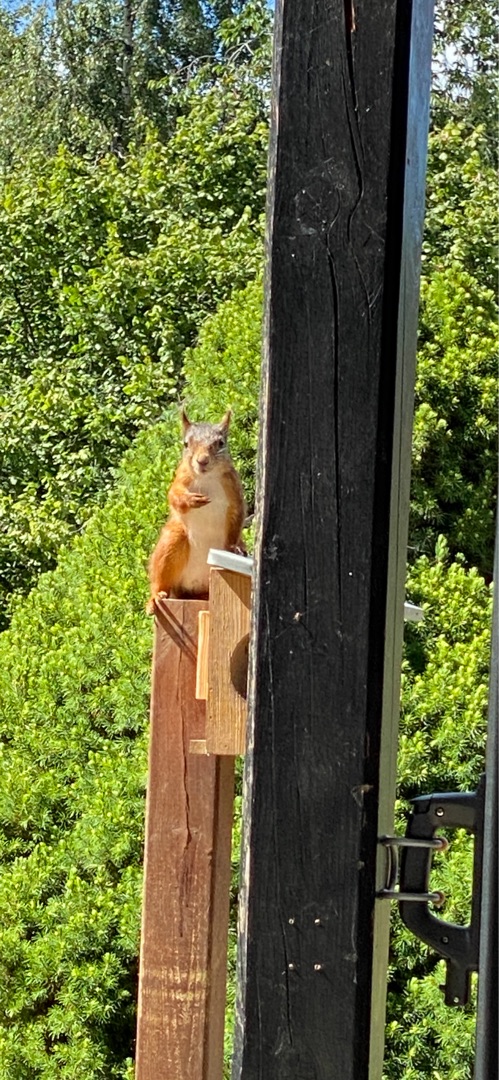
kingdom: Animalia
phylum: Chordata
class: Mammalia
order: Rodentia
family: Sciuridae
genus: Sciurus
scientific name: Sciurus vulgaris
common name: Egern
